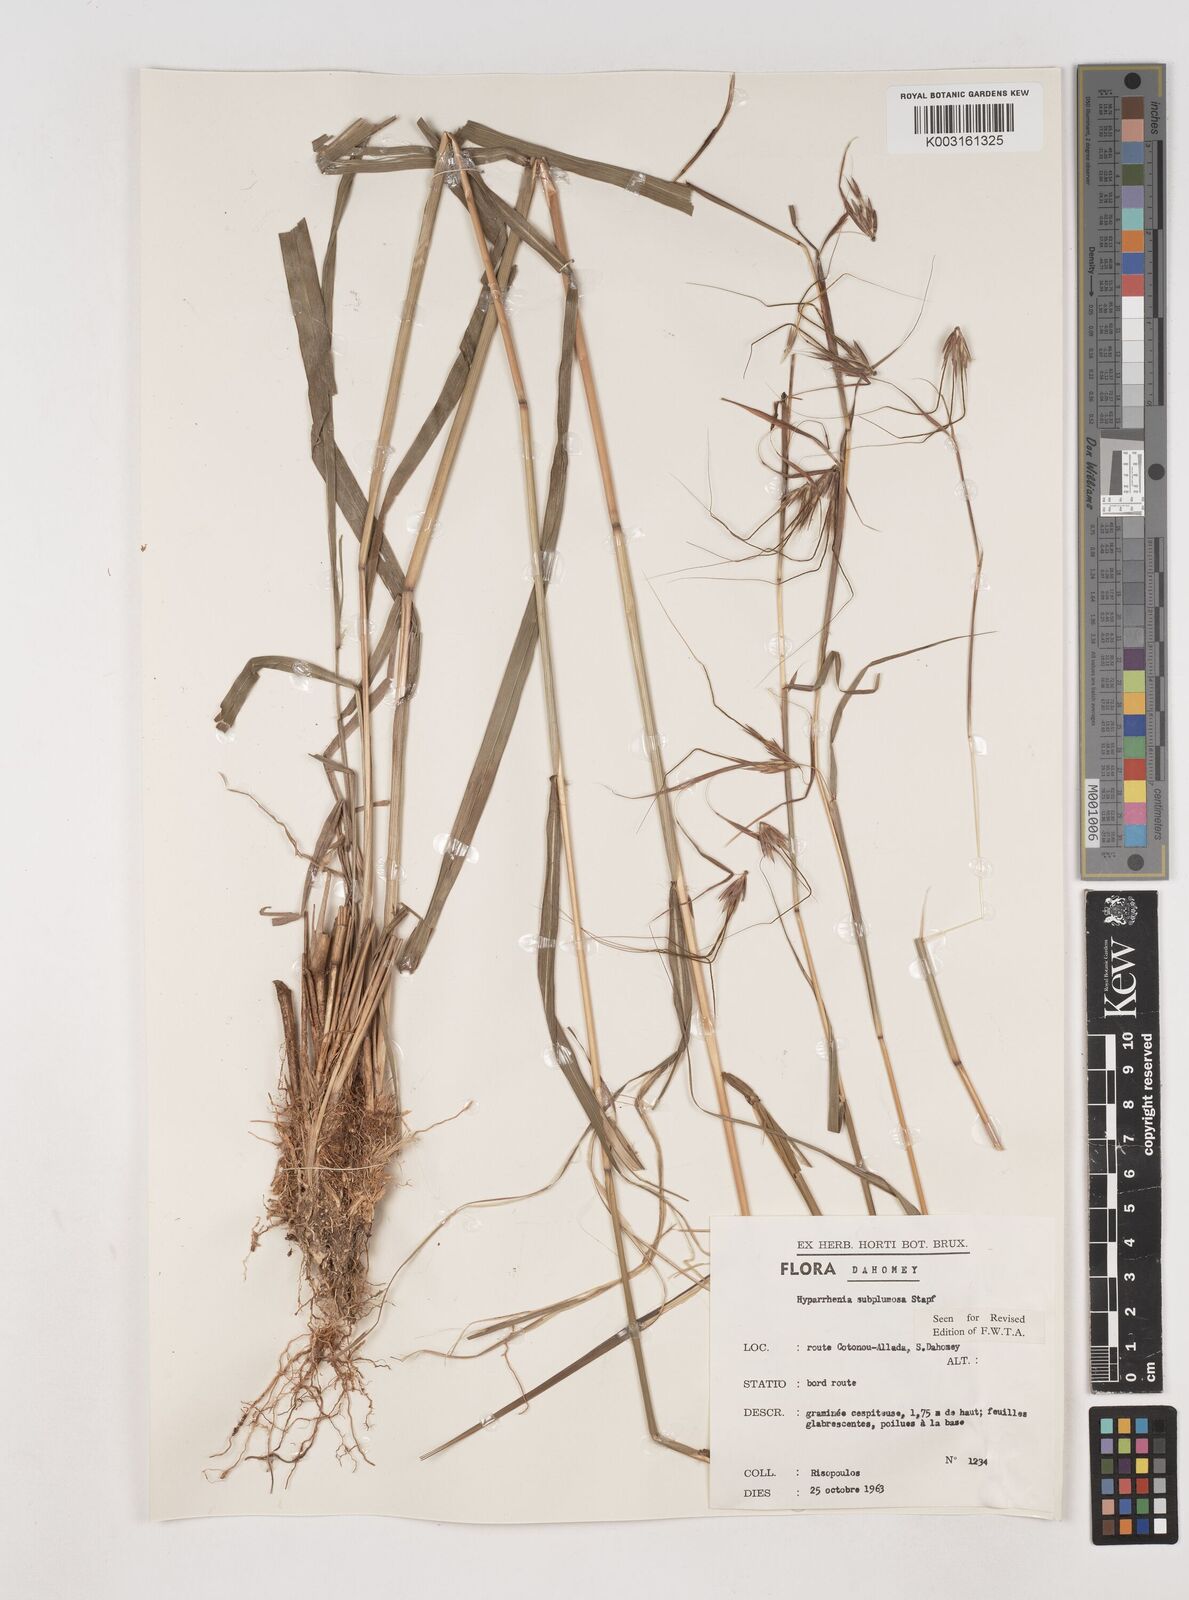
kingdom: Plantae
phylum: Tracheophyta
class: Liliopsida
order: Poales
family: Poaceae
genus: Hyparrhenia
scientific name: Hyparrhenia subplumosa
